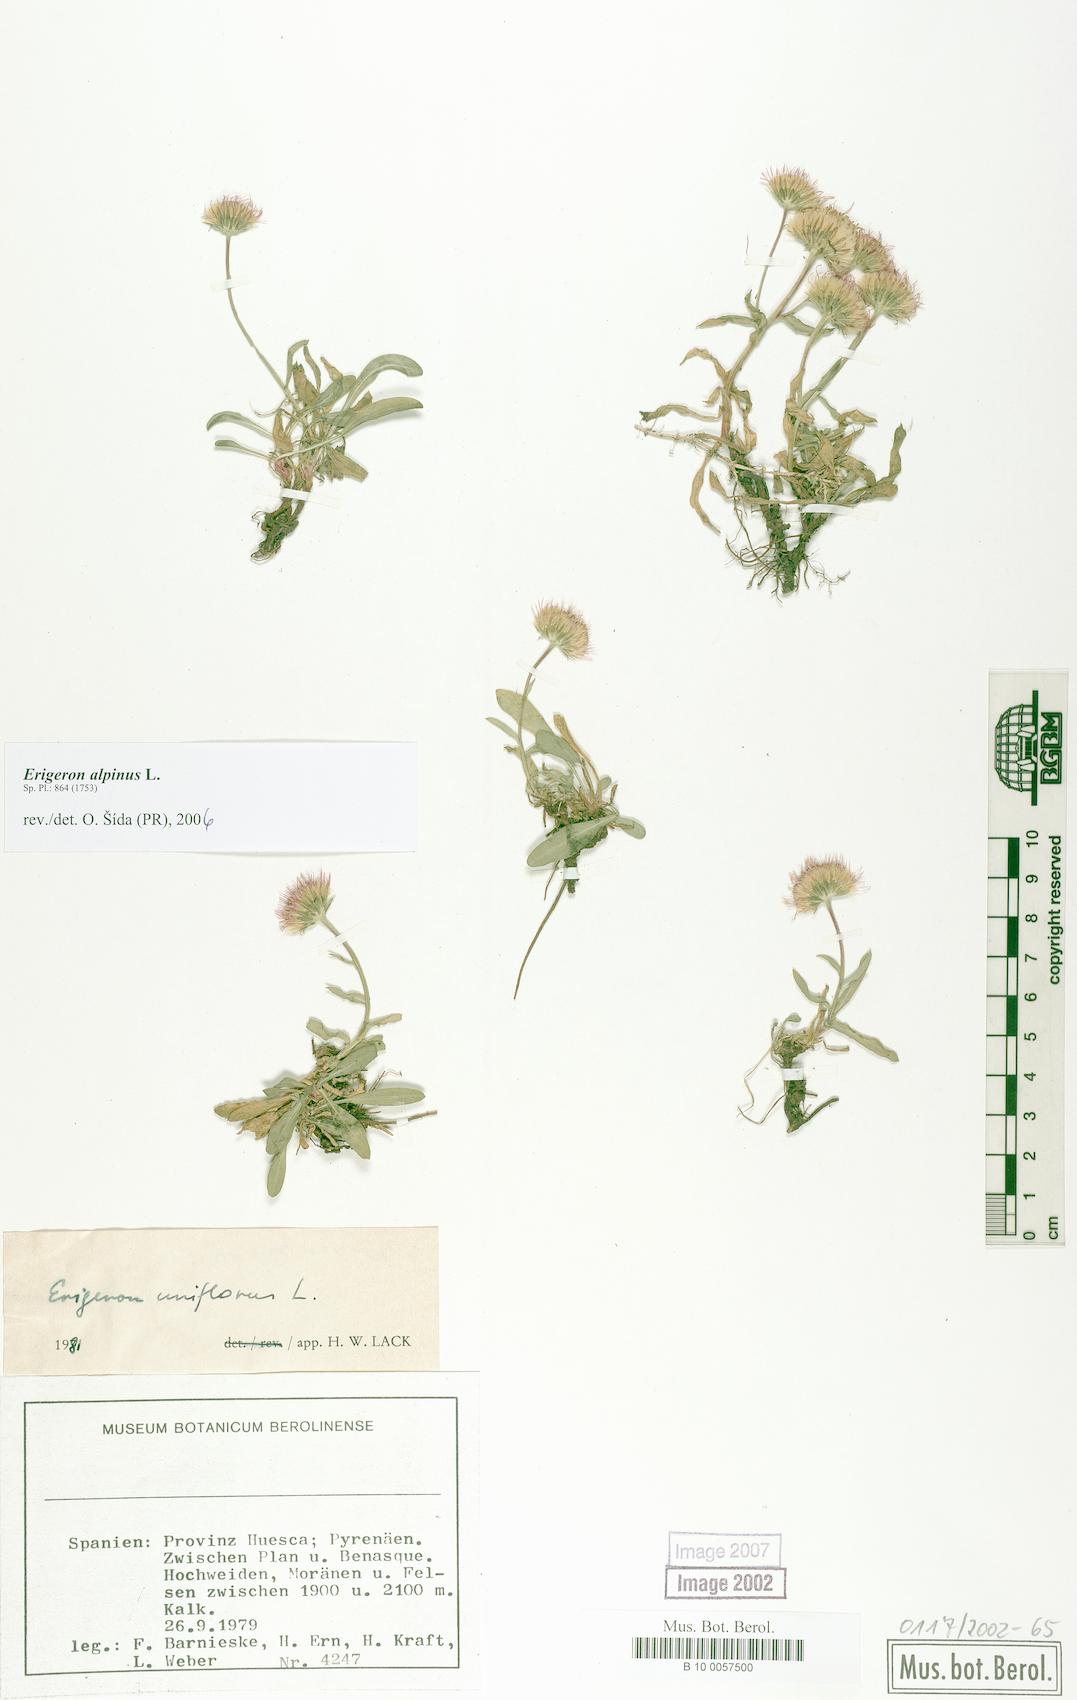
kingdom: Plantae
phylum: Tracheophyta
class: Magnoliopsida
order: Asterales
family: Asteraceae
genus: Erigeron
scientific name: Erigeron alpinus
